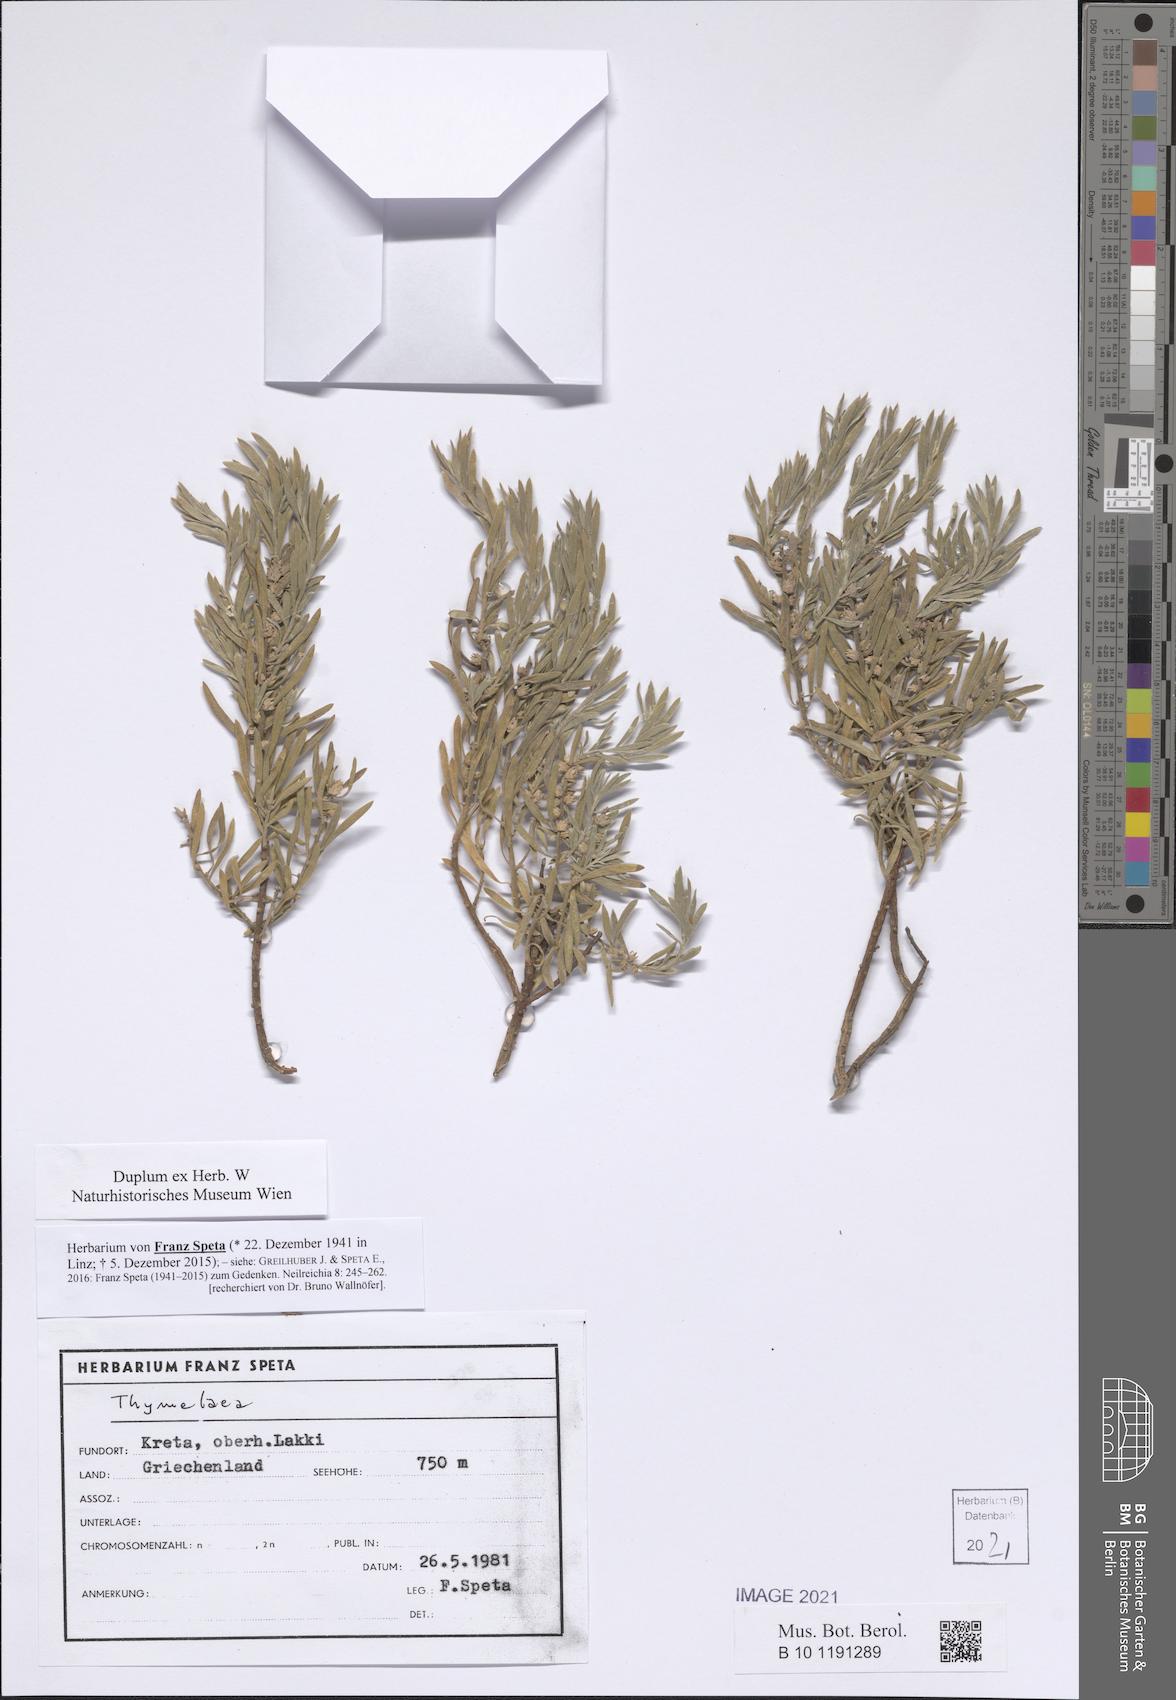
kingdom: Plantae
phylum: Tracheophyta
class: Magnoliopsida
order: Malvales
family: Thymelaeaceae
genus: Thymelaea
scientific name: Thymelaea
